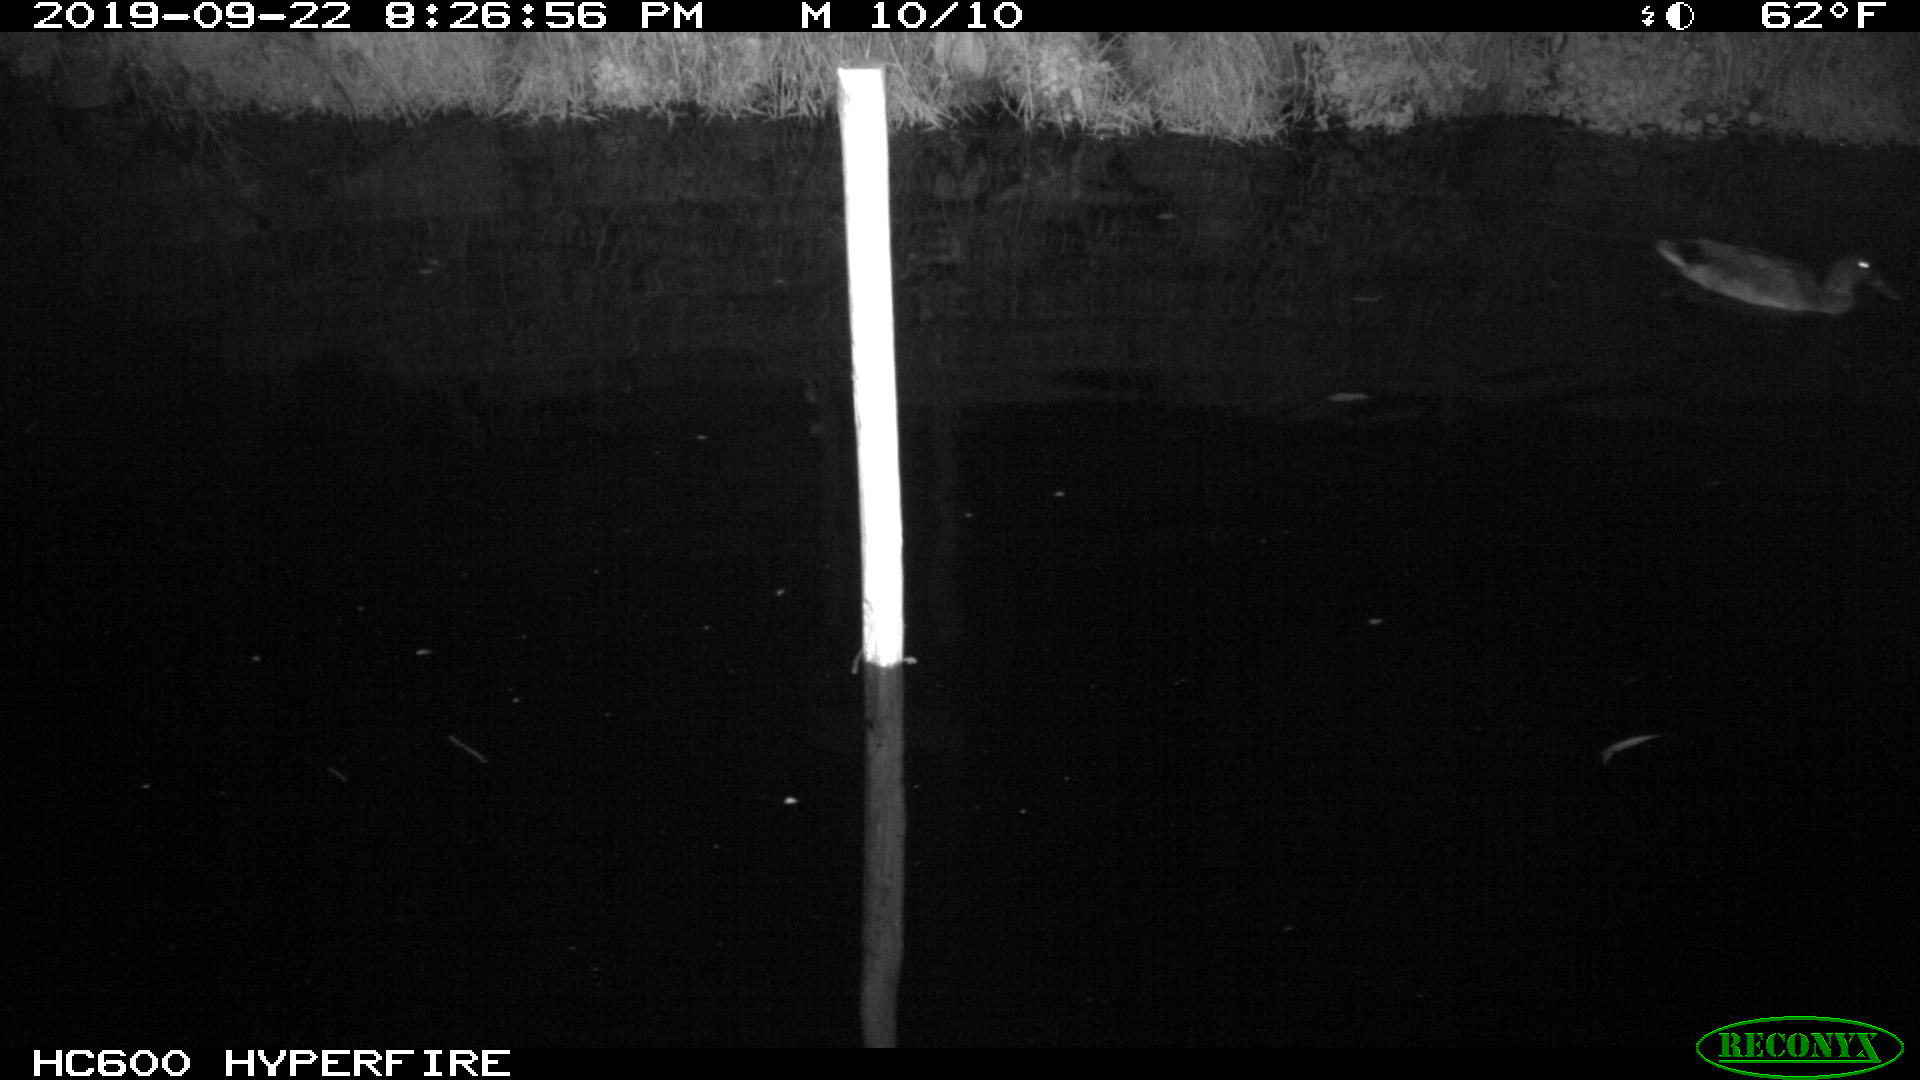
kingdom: Animalia
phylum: Chordata
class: Aves
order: Anseriformes
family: Anatidae
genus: Anas
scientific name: Anas platyrhynchos
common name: Mallard
